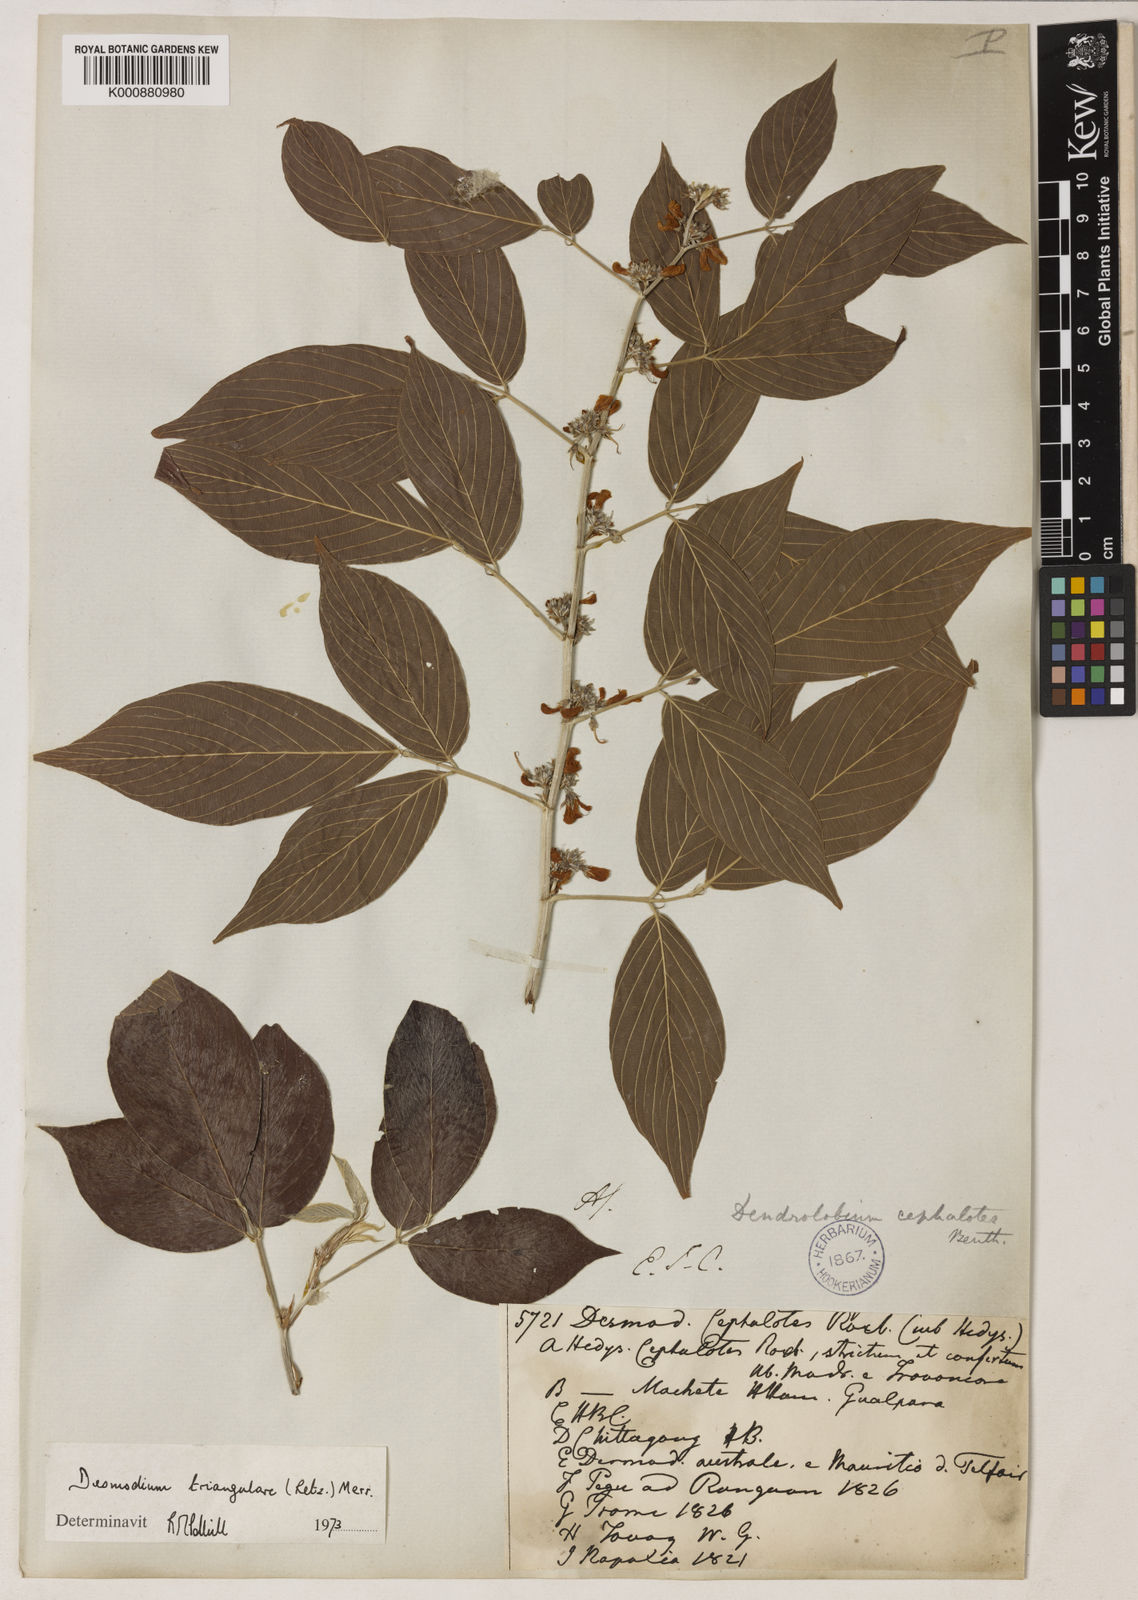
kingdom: Plantae
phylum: Tracheophyta
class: Magnoliopsida
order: Fabales
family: Fabaceae
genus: Dendrolobium
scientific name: Dendrolobium triangulare
